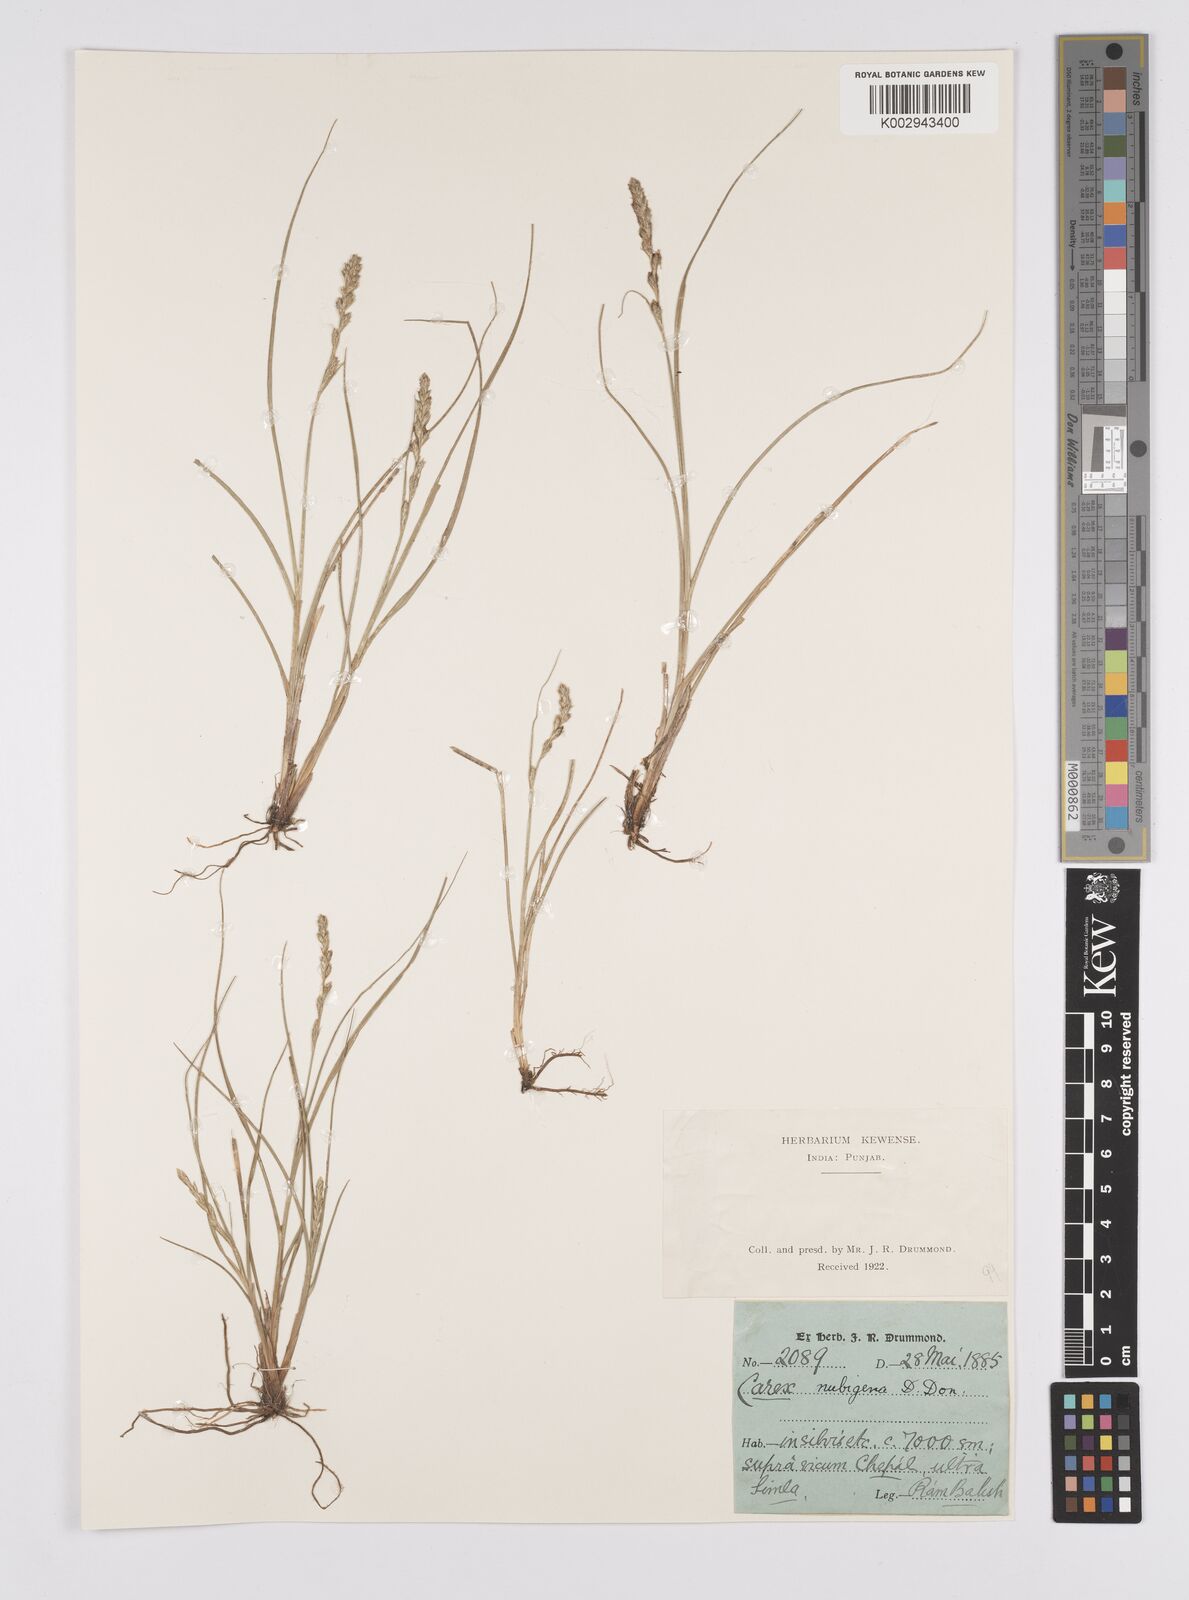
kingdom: Plantae
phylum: Tracheophyta
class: Liliopsida
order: Poales
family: Cyperaceae
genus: Carex
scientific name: Carex nubigena
